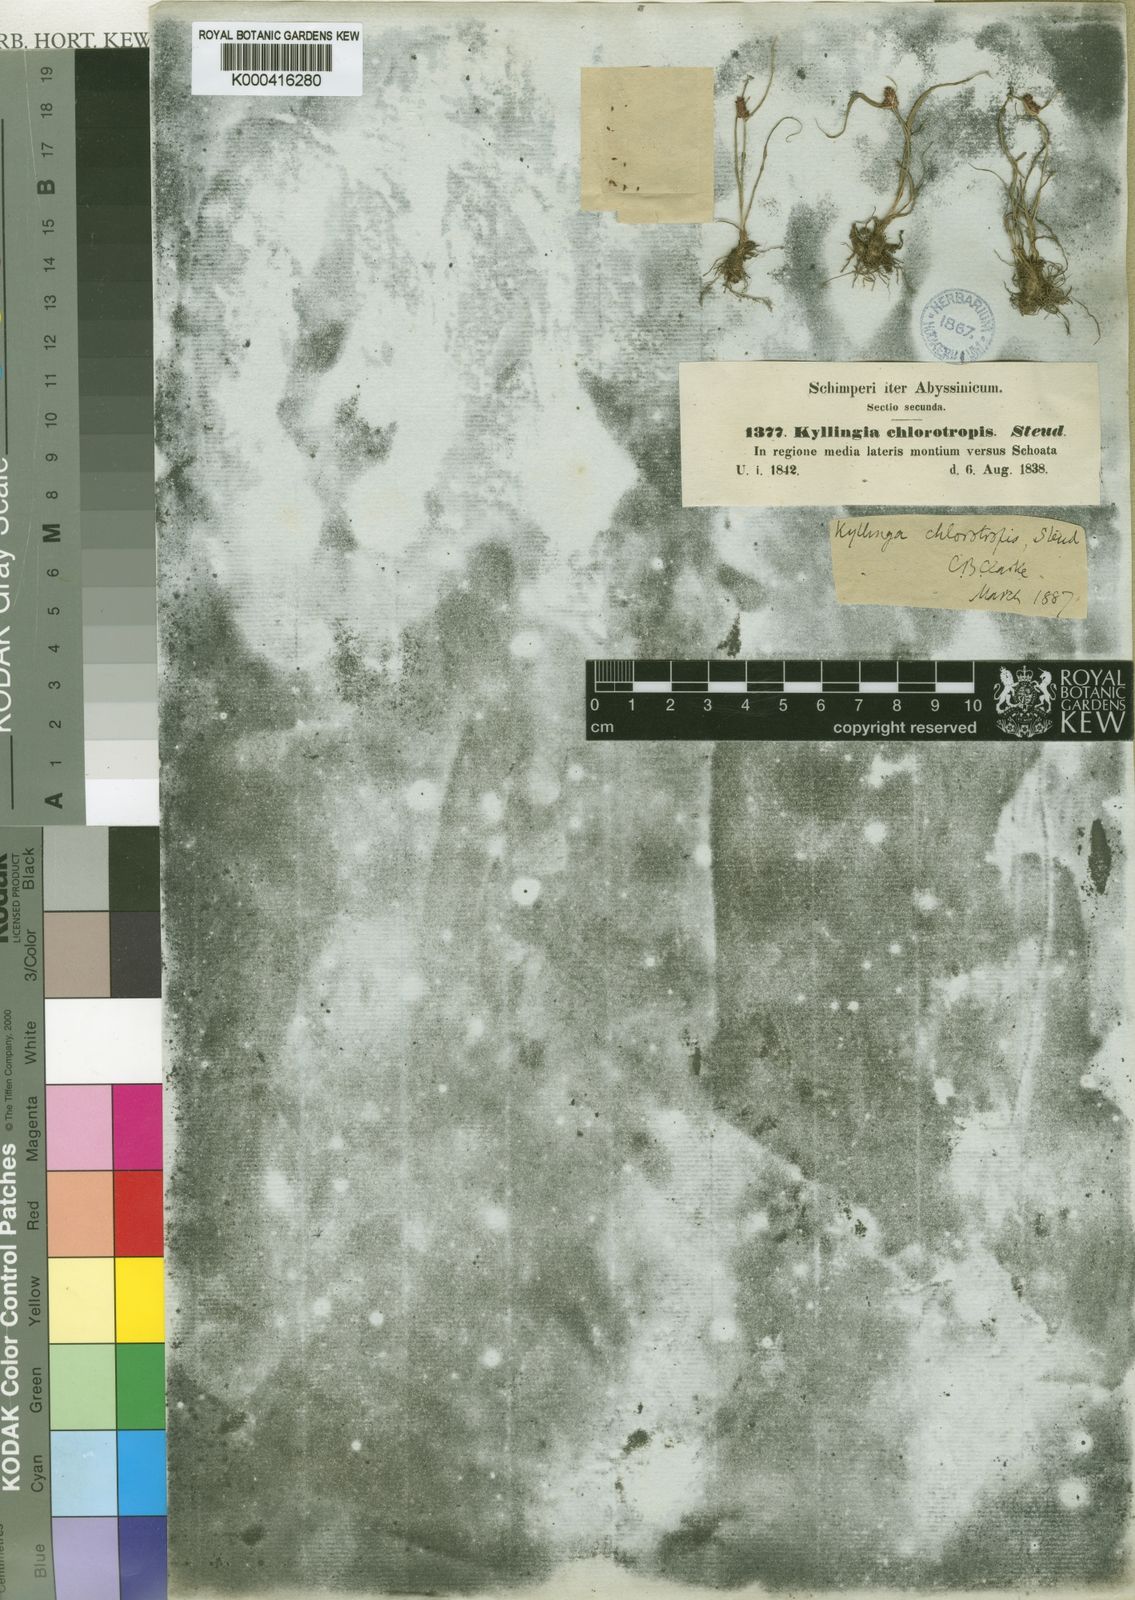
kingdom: Plantae
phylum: Tracheophyta
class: Liliopsida
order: Poales
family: Cyperaceae
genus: Cyperus
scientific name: Cyperus chlorotropis
